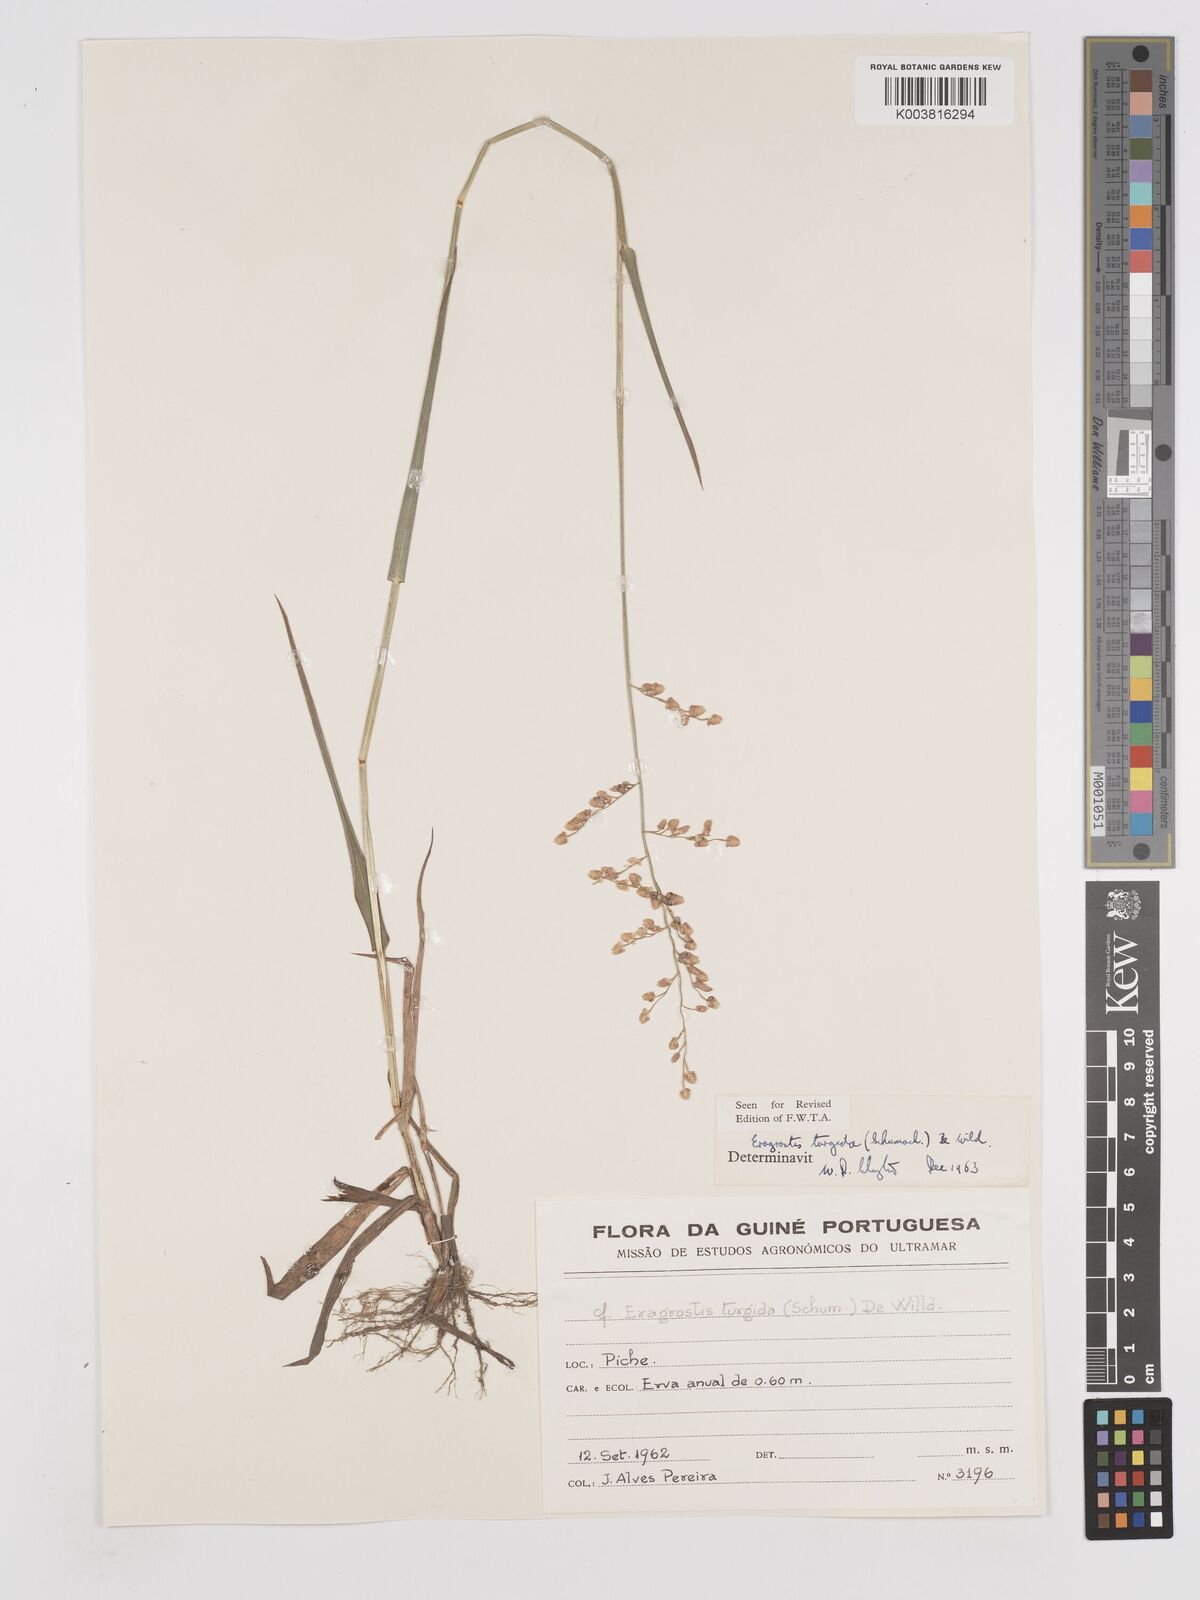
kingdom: Plantae
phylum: Tracheophyta
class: Liliopsida
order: Poales
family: Poaceae
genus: Eragrostis
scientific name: Eragrostis turgida
